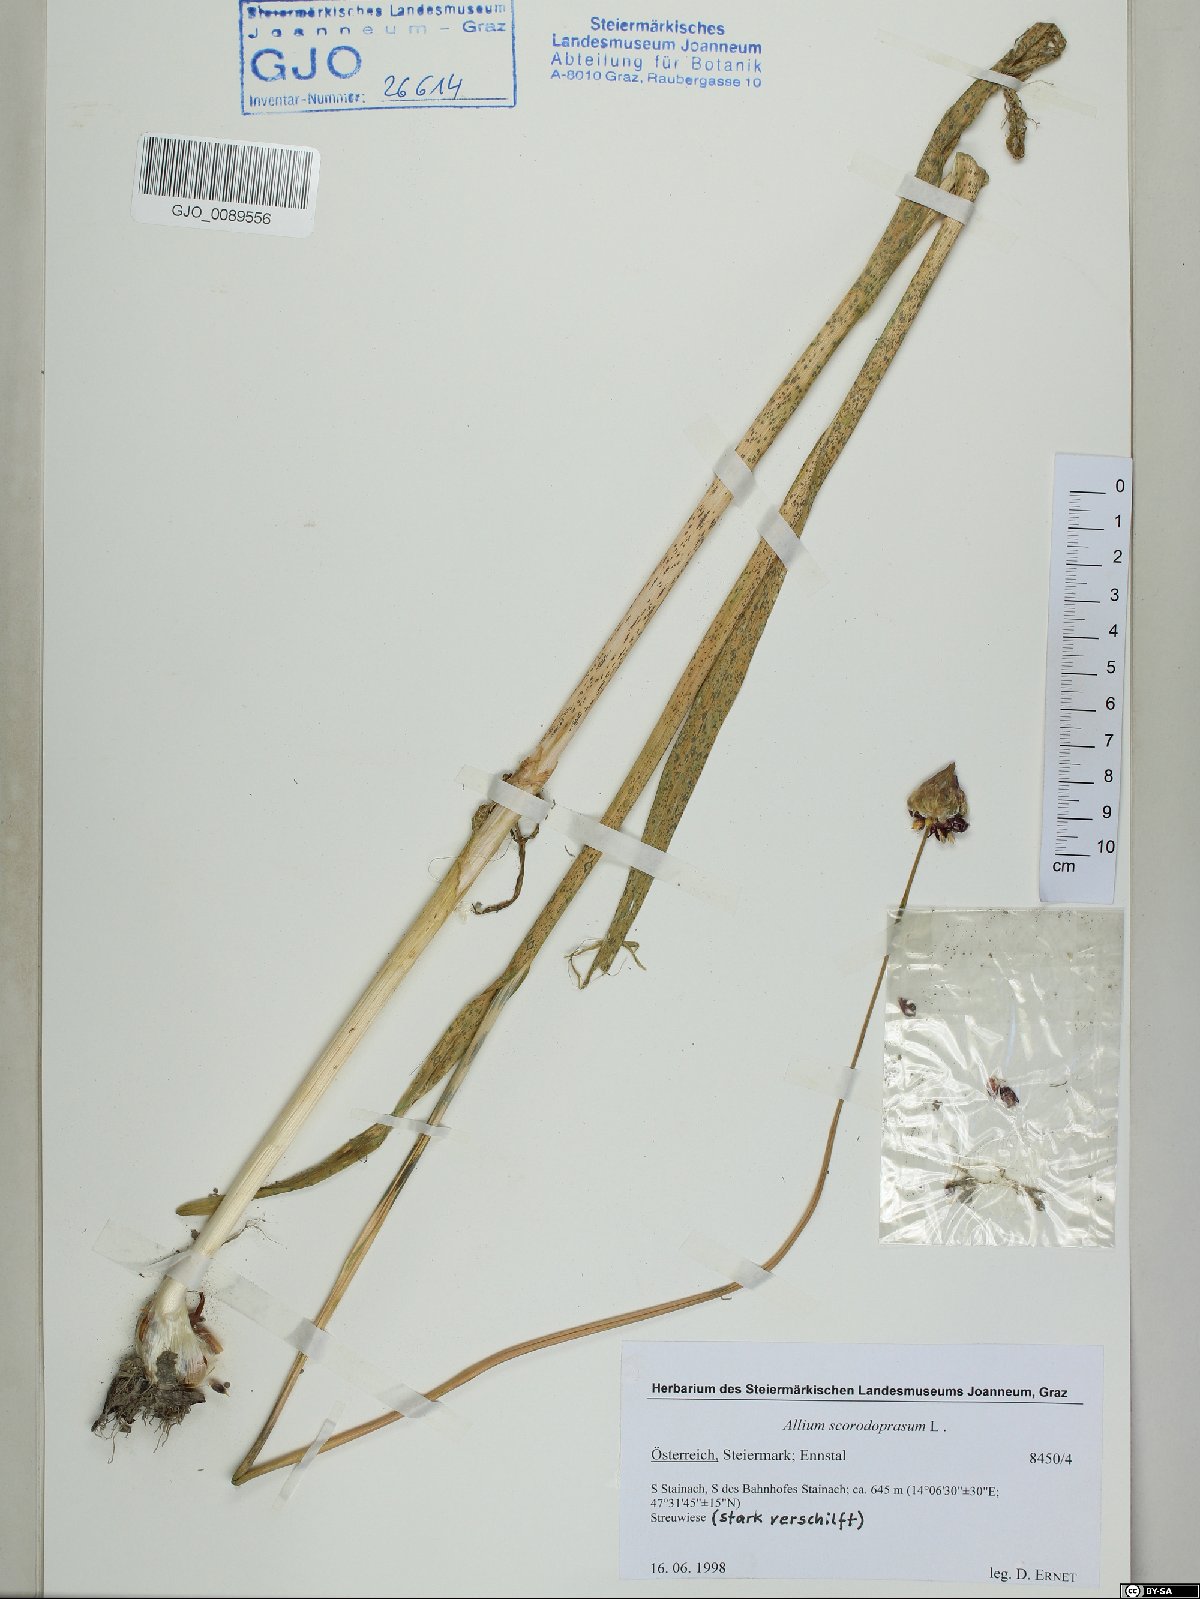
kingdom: Plantae
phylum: Tracheophyta
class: Liliopsida
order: Asparagales
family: Amaryllidaceae
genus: Allium
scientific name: Allium scorodoprasum
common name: Sand leek
